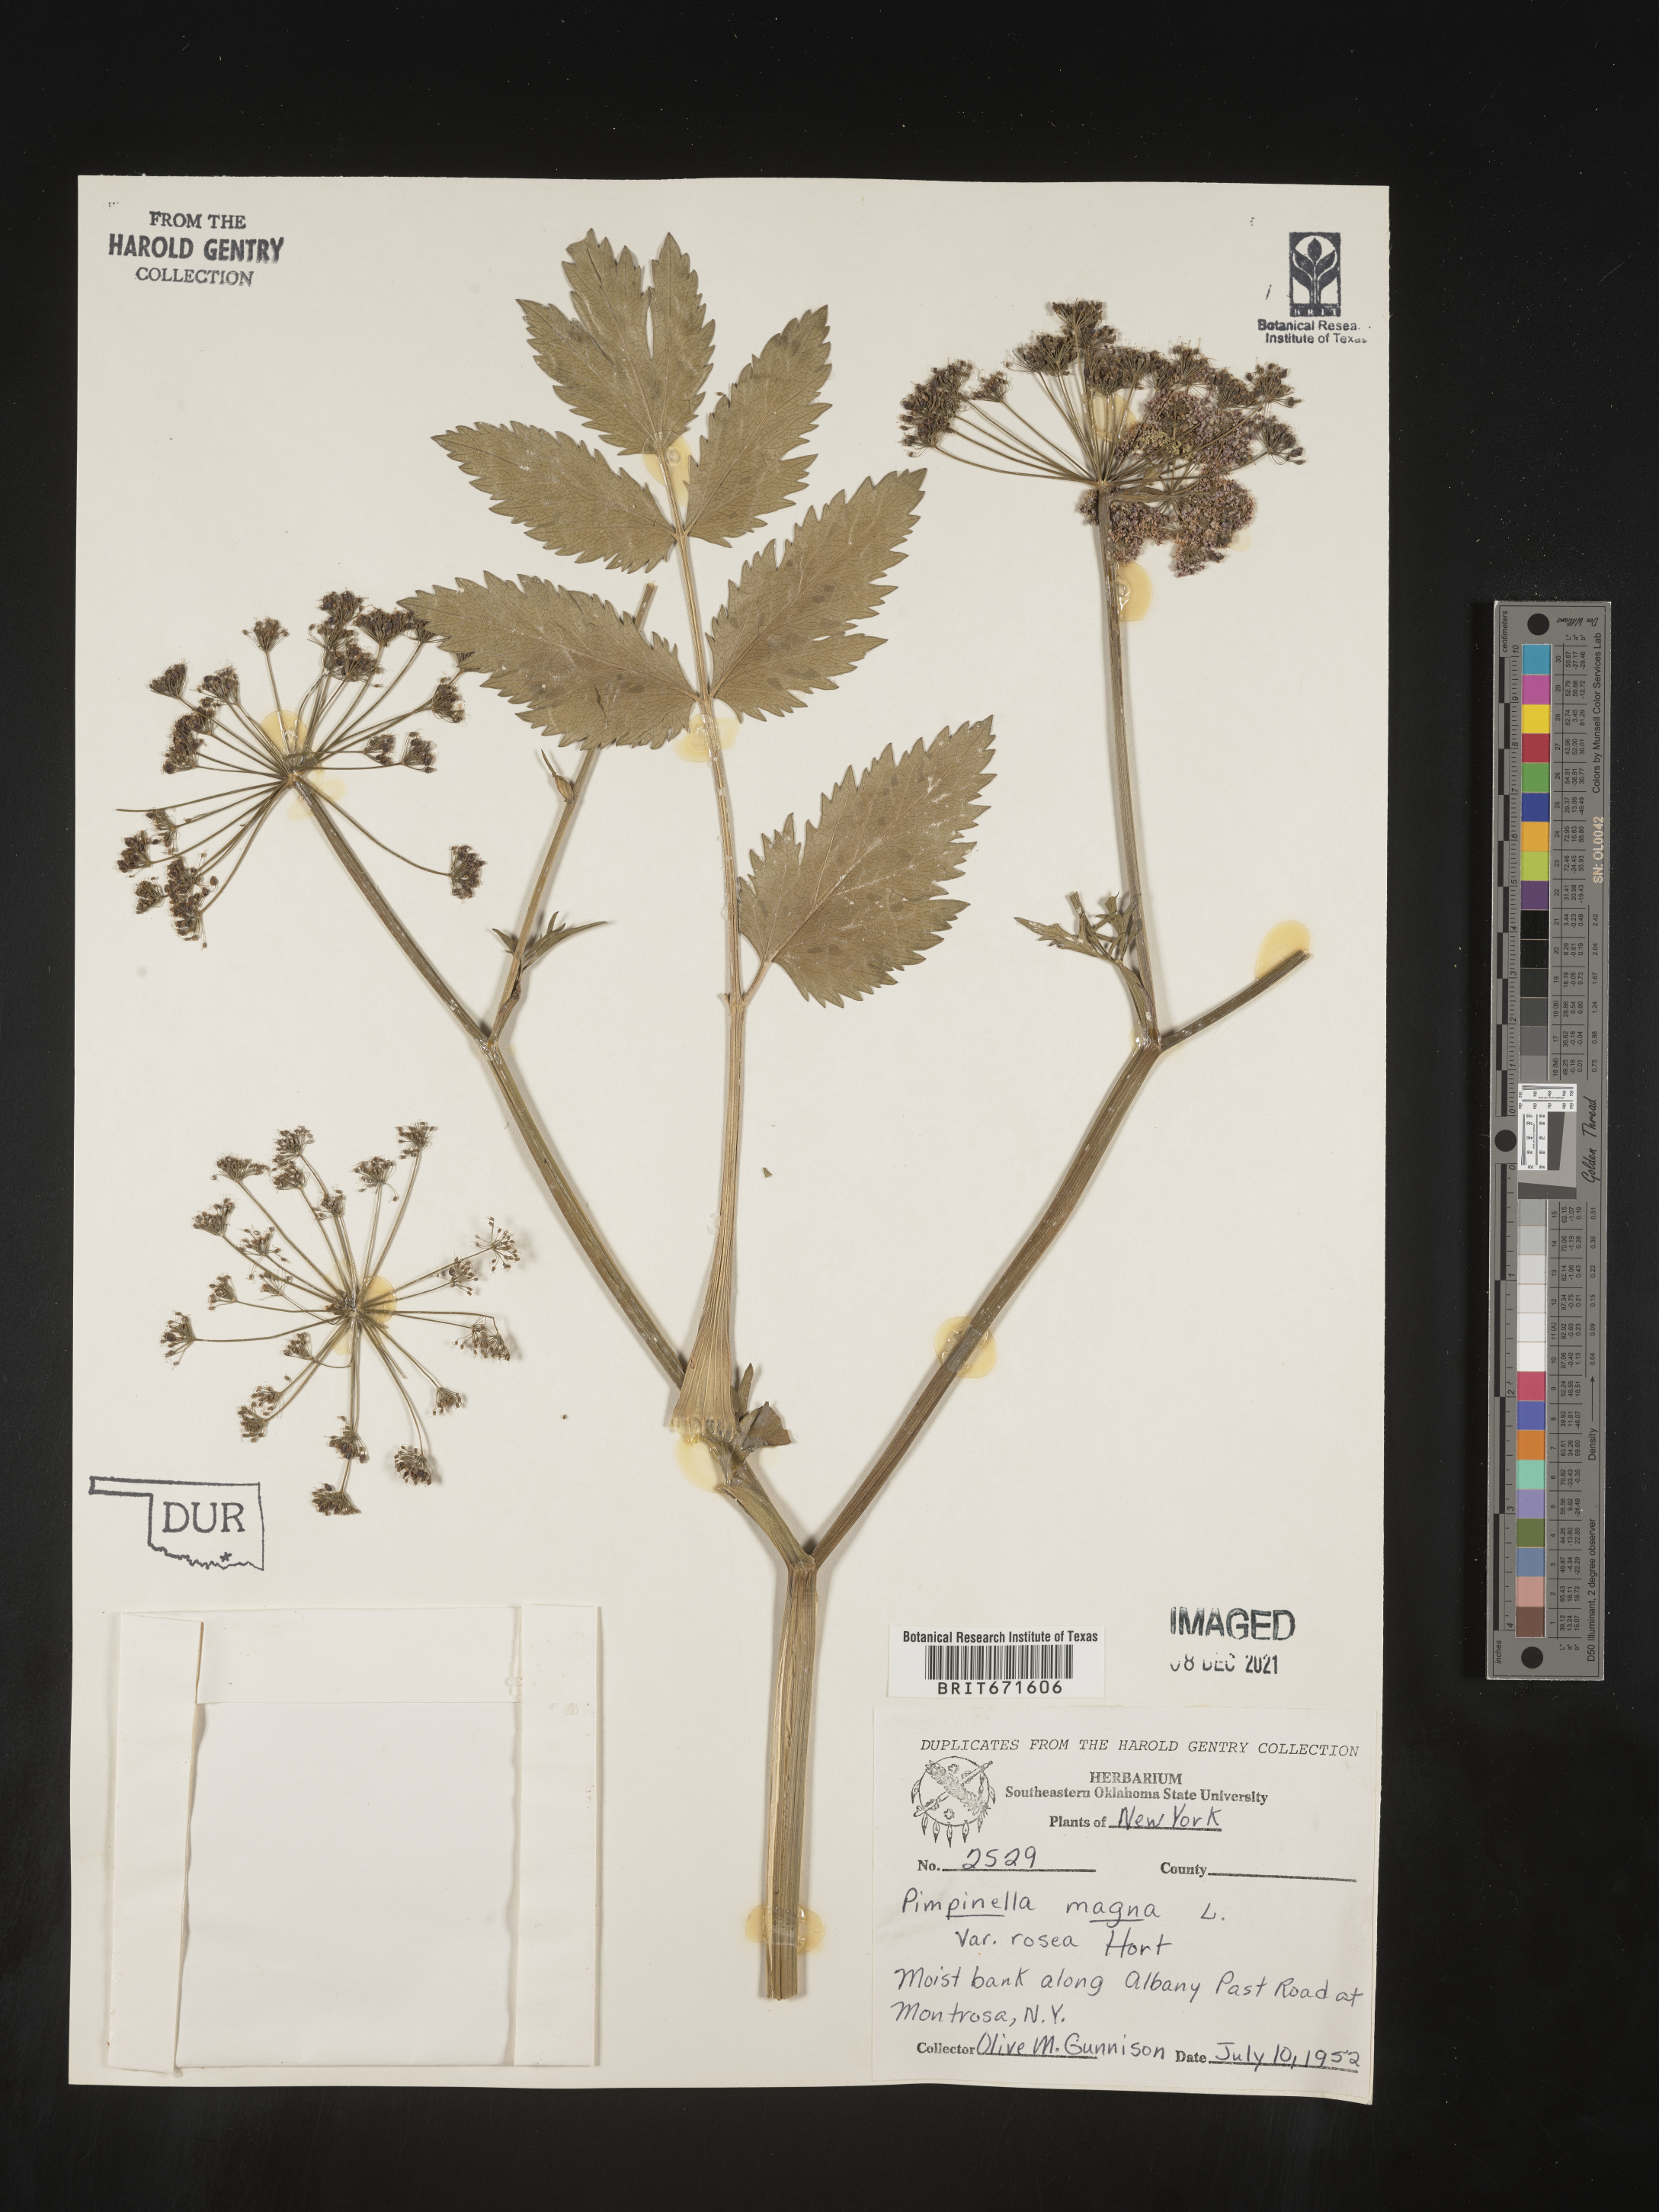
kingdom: Plantae
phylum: Tracheophyta
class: Magnoliopsida
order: Apiales
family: Apiaceae
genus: Pimpinella
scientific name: Pimpinella
